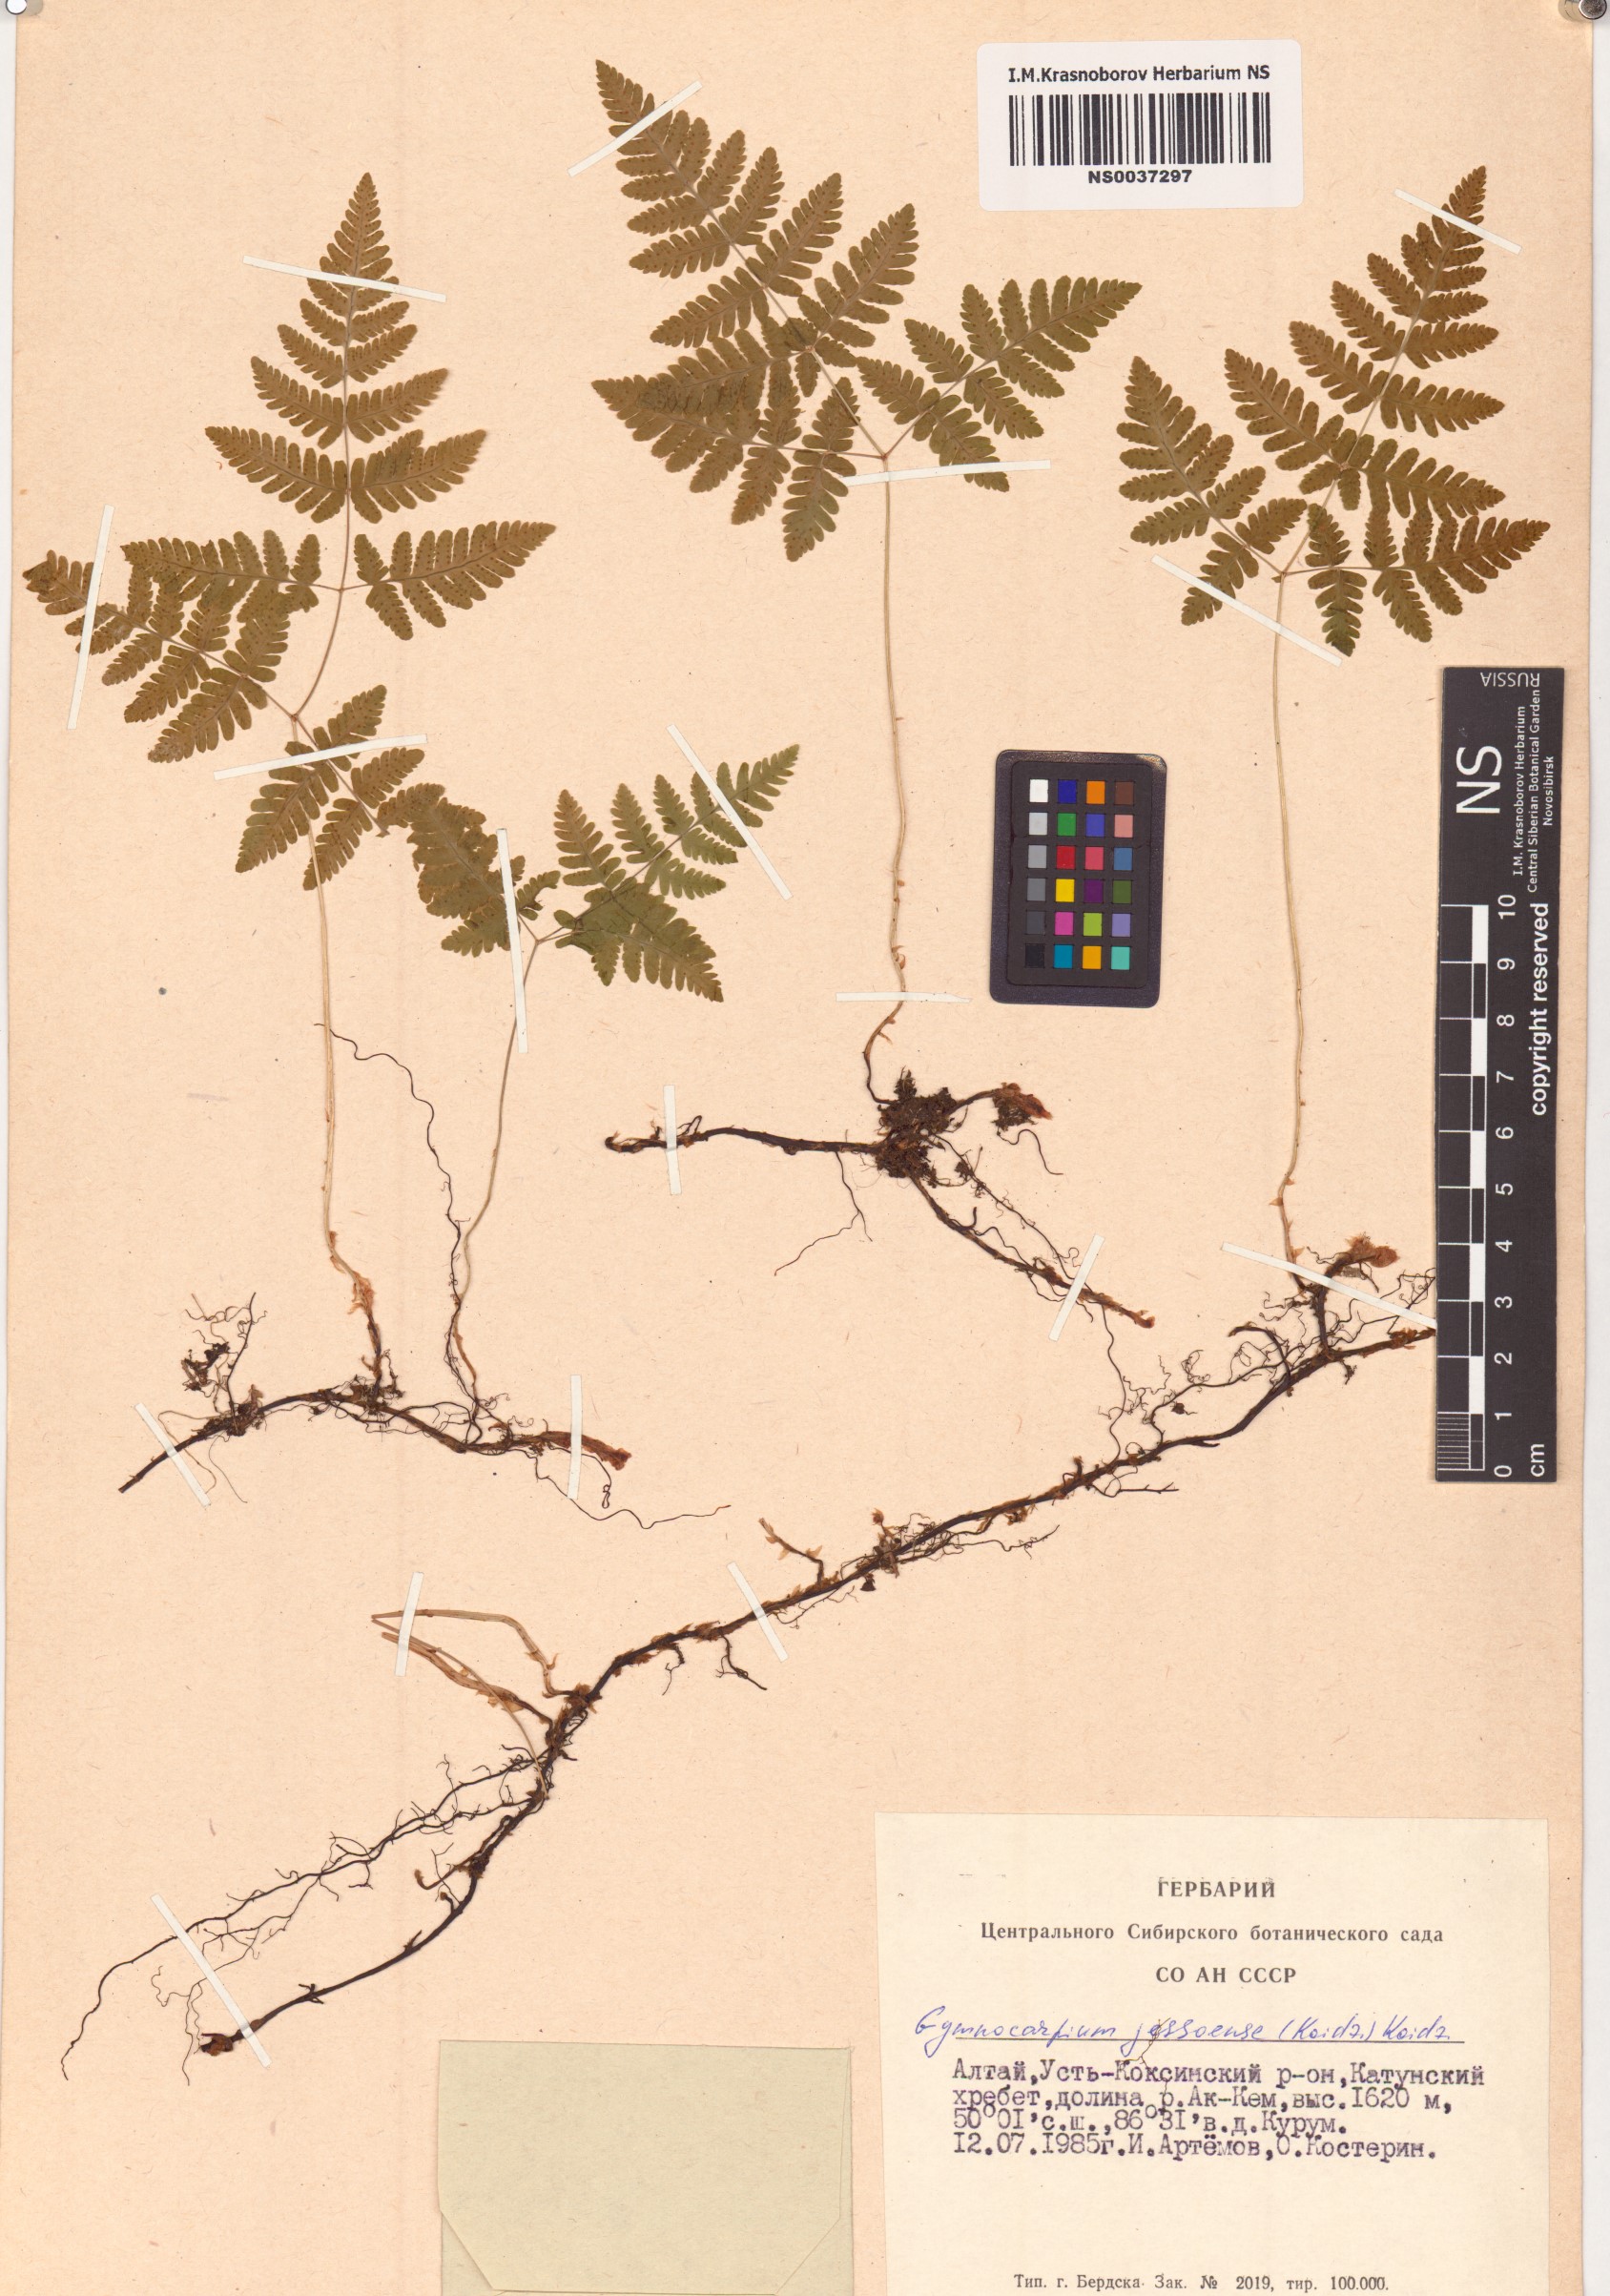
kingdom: Plantae
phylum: Tracheophyta
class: Polypodiopsida
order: Polypodiales
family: Cystopteridaceae
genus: Gymnocarpium
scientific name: Gymnocarpium jessoense
